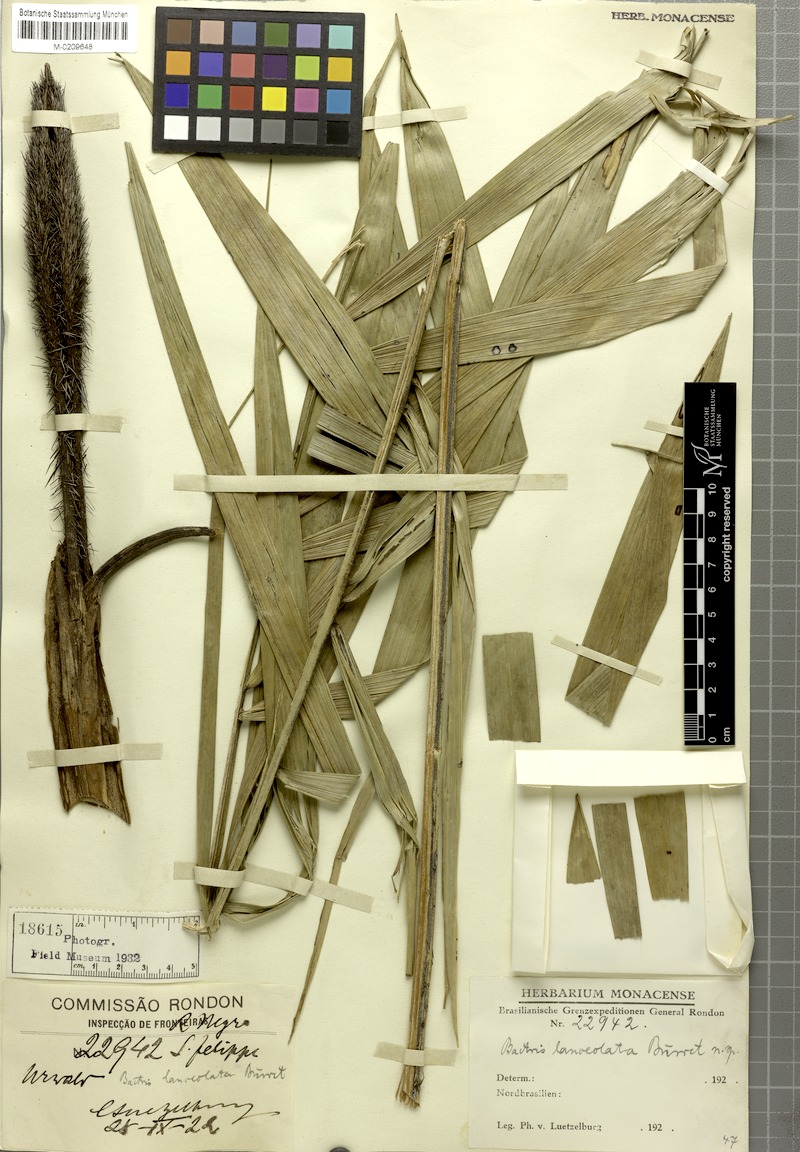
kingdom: Plantae
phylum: Tracheophyta
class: Liliopsida
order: Arecales
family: Arecaceae
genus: Bactris
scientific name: Bactris campestris
